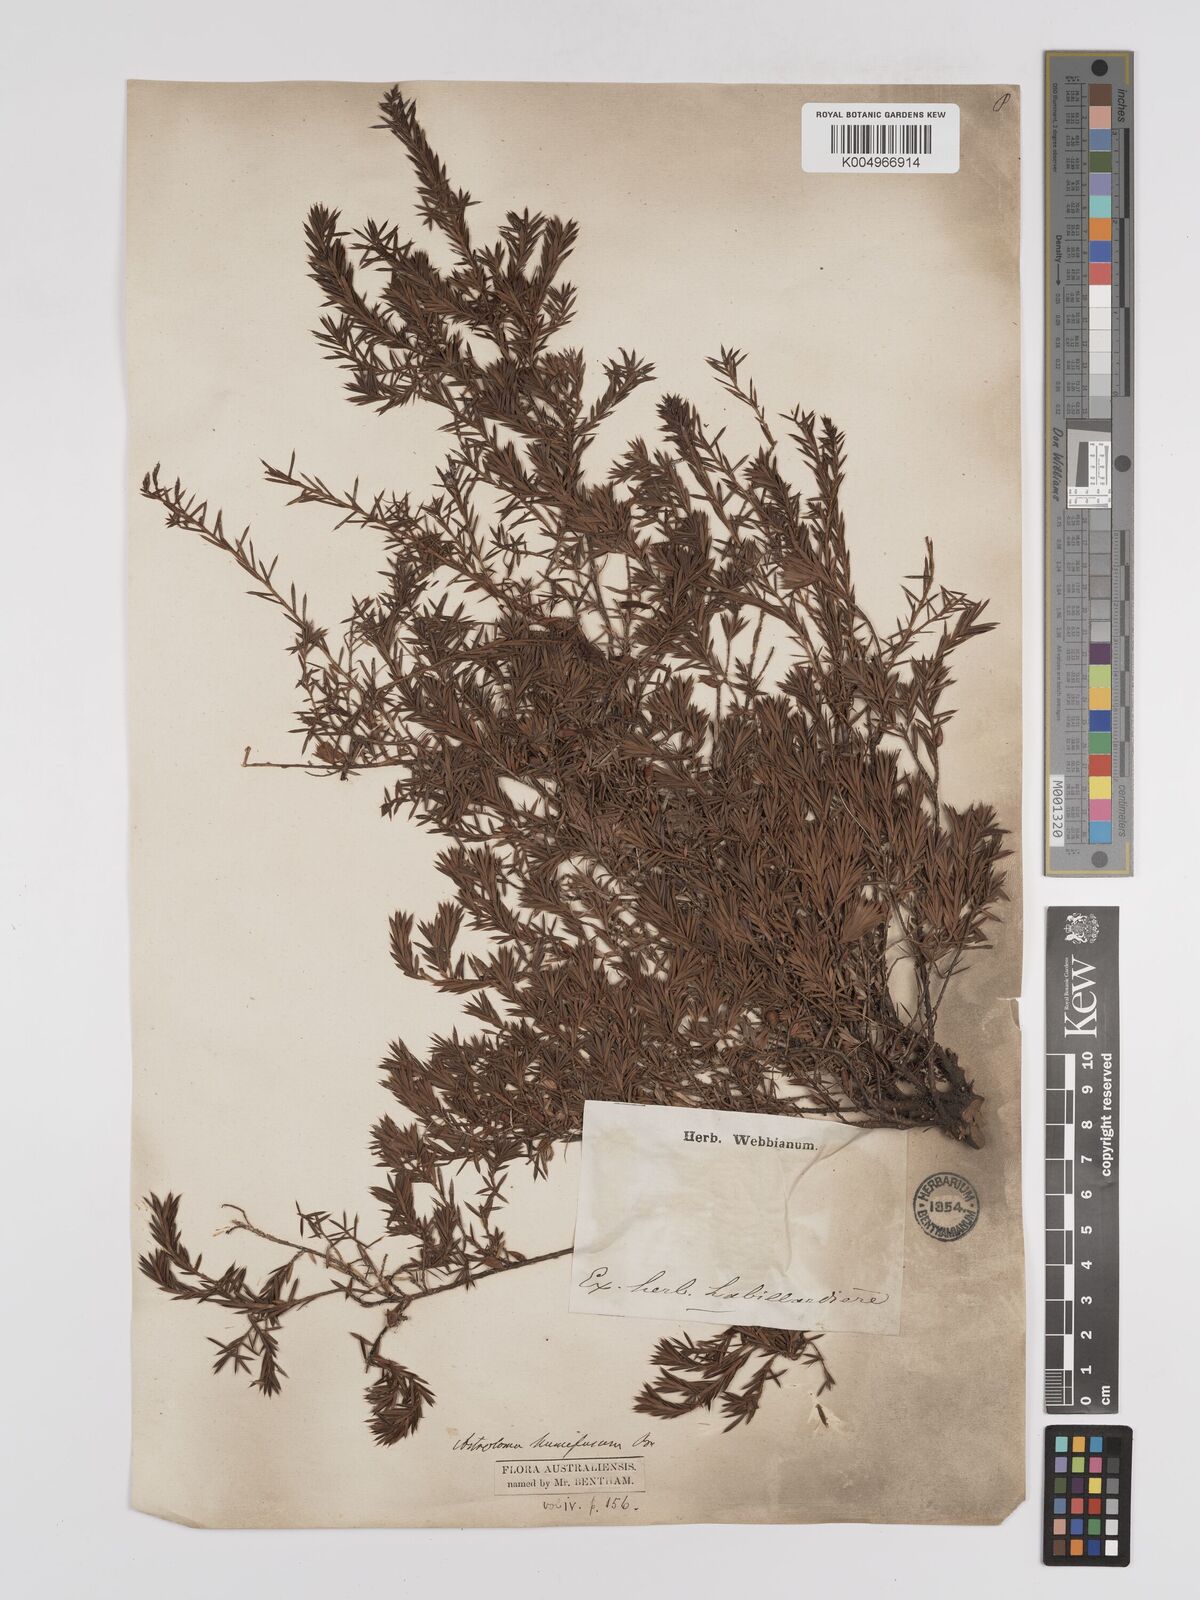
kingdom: Plantae
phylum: Tracheophyta
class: Magnoliopsida
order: Ericales
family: Ericaceae
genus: Styphelia
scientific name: Styphelia humifusa
